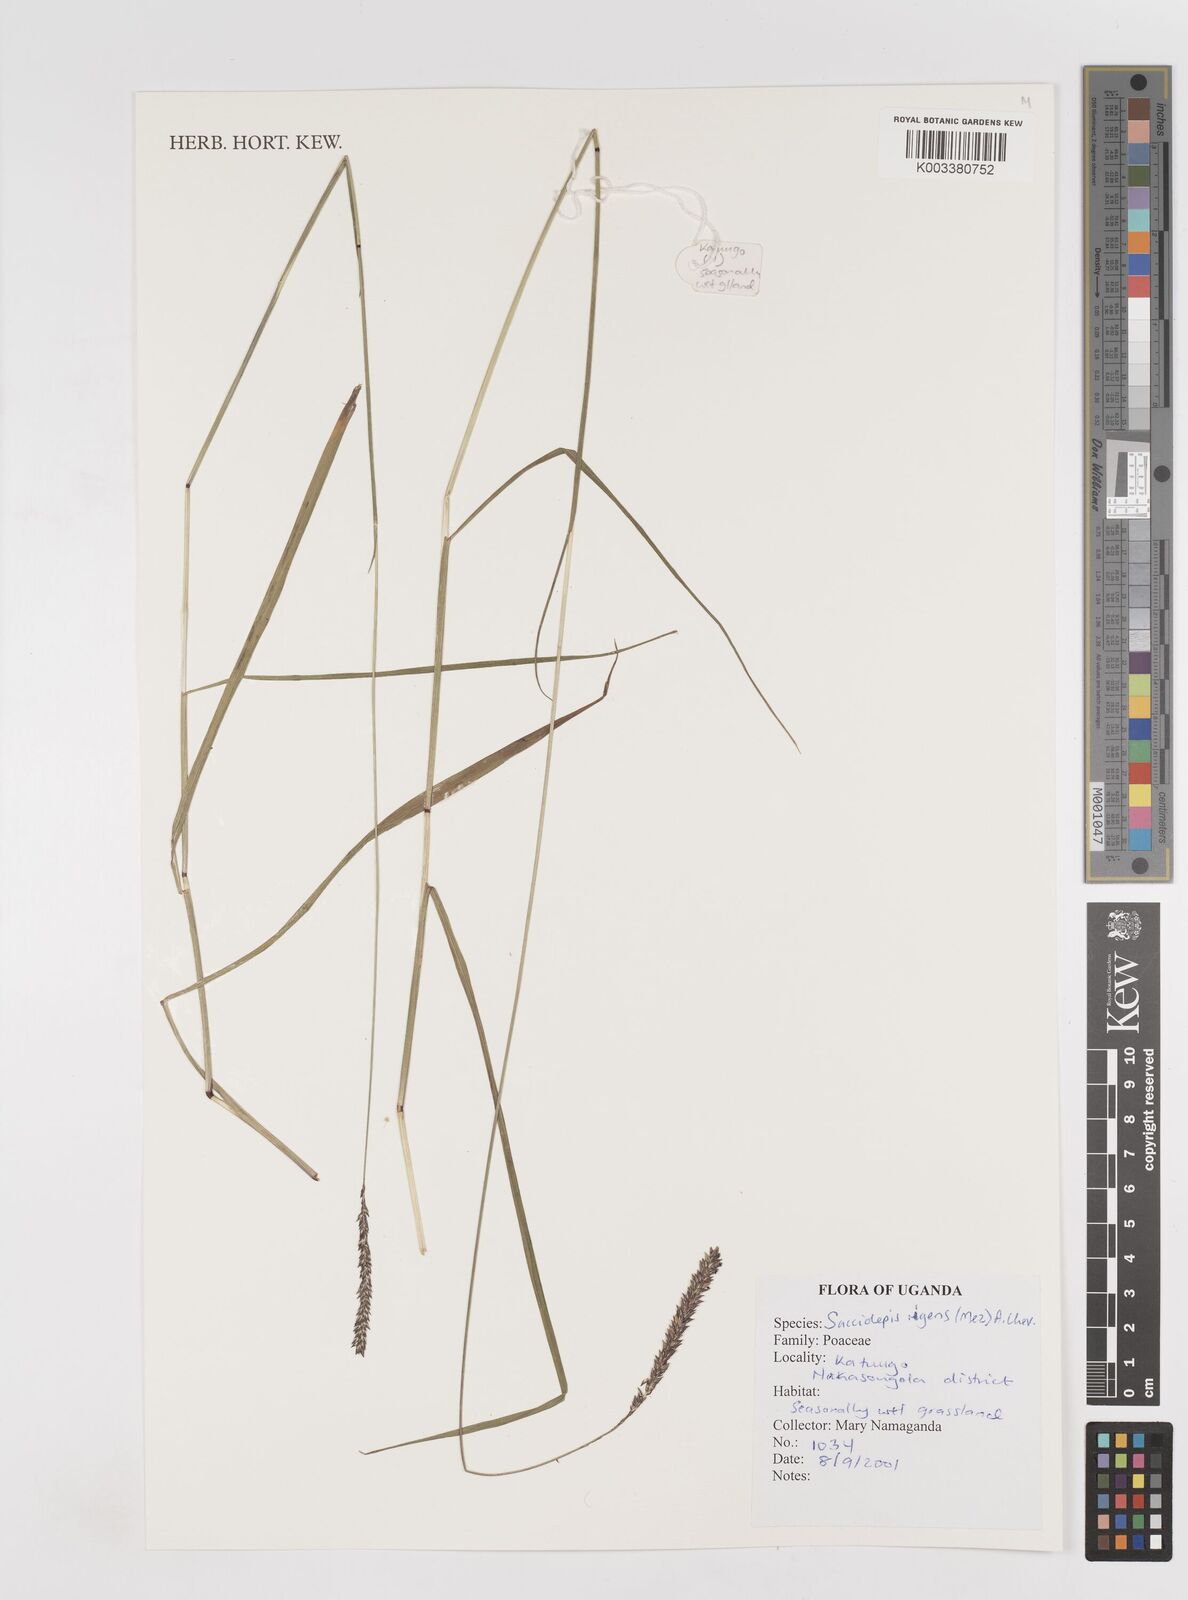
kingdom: Plantae
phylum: Tracheophyta
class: Liliopsida
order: Poales
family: Poaceae
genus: Sacciolepis
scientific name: Sacciolepis leptorrhachis
